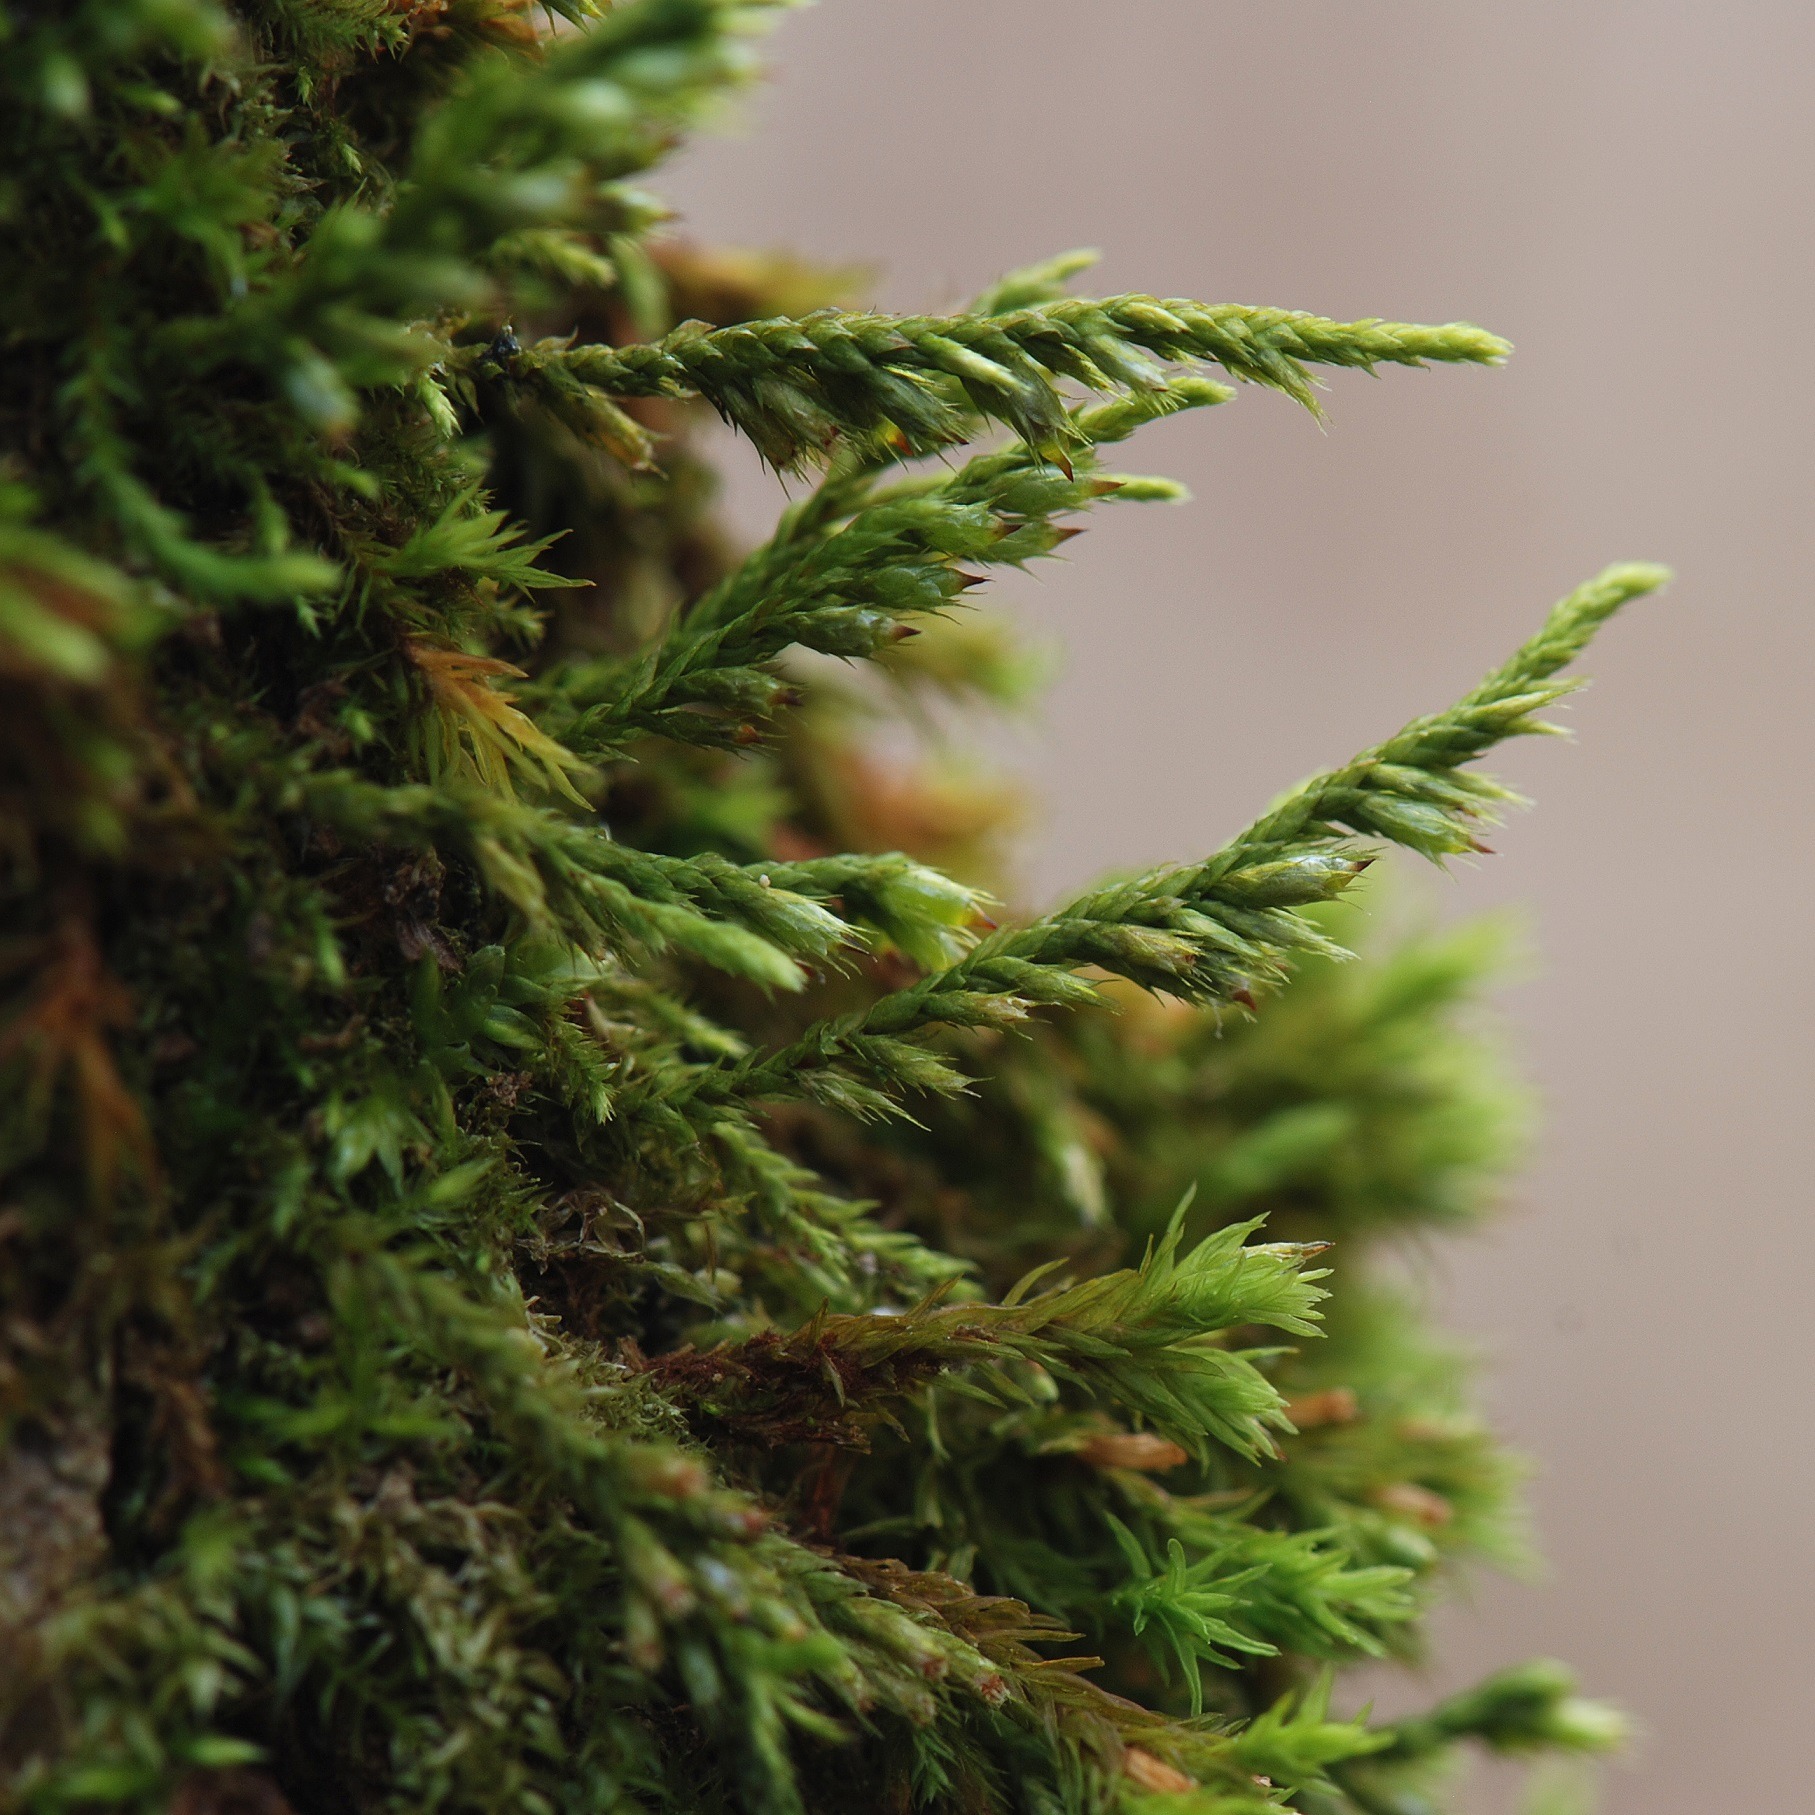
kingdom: Plantae
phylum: Bryophyta
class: Bryopsida
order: Hypnales
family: Cryphaeaceae
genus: Cryphaea
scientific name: Cryphaea heteromalla
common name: Bark-dækmos
